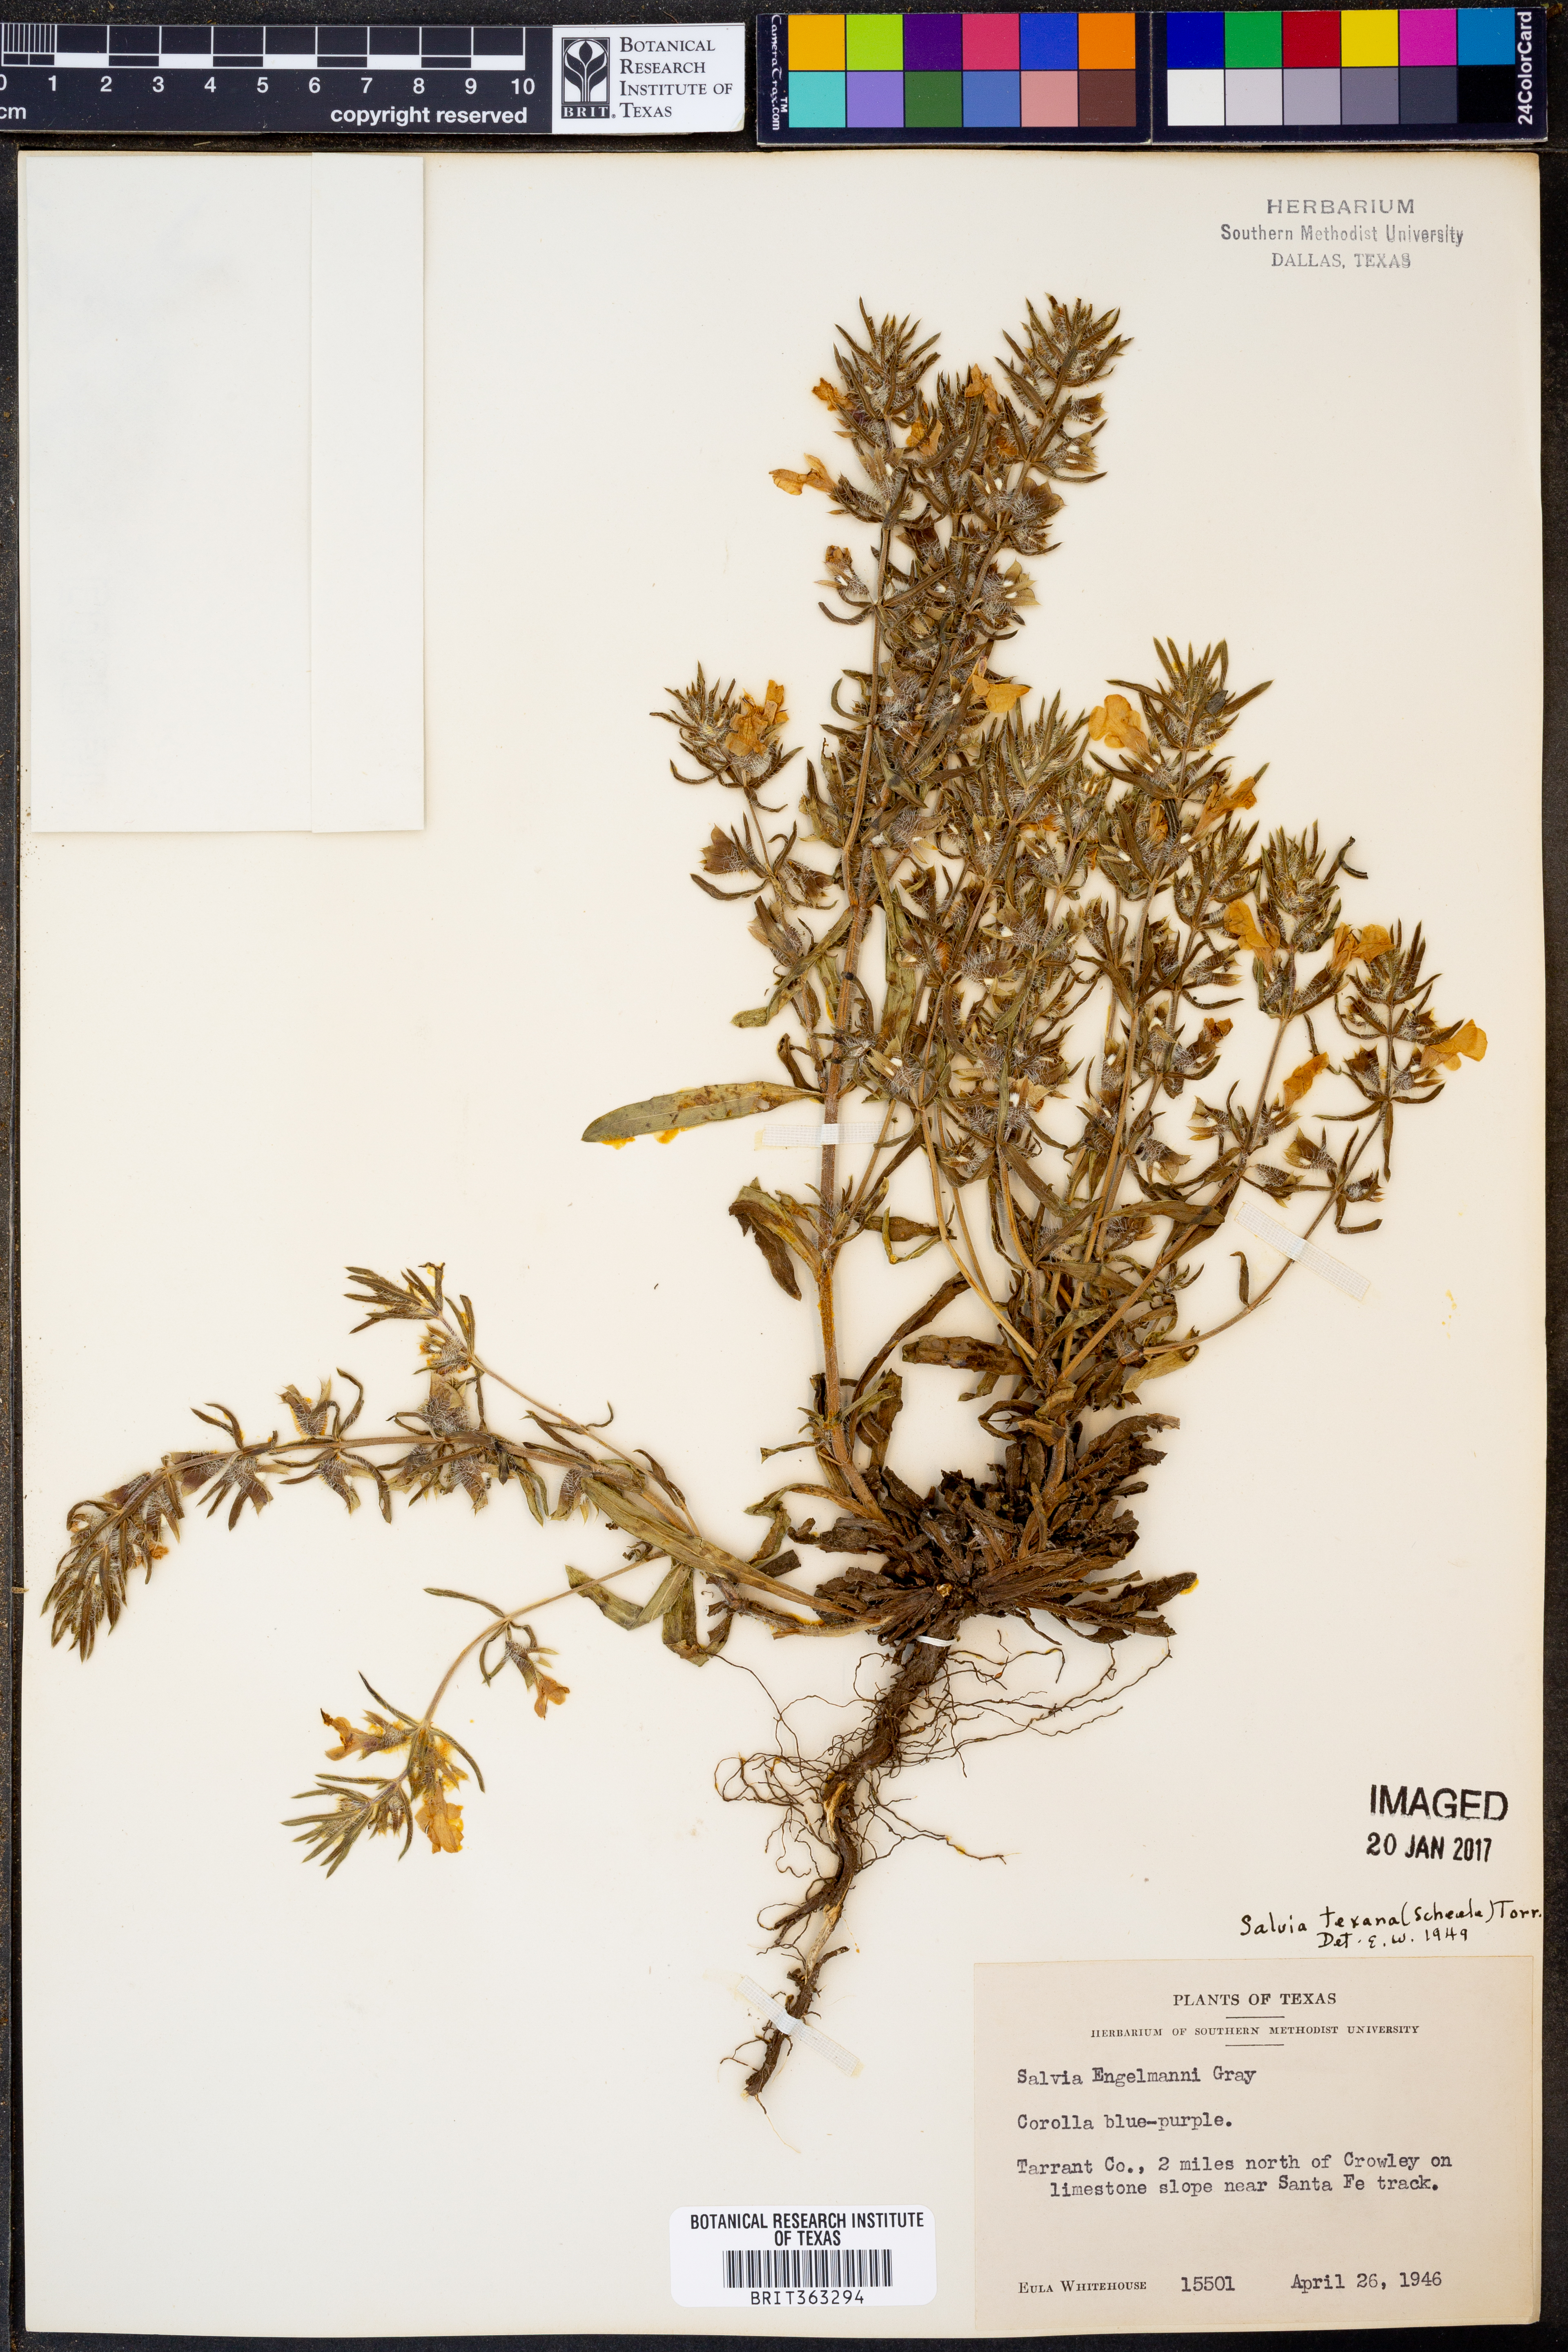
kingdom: Plantae
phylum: Tracheophyta
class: Magnoliopsida
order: Lamiales
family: Lamiaceae
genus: Salvia
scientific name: Salvia texana
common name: Texas sage
